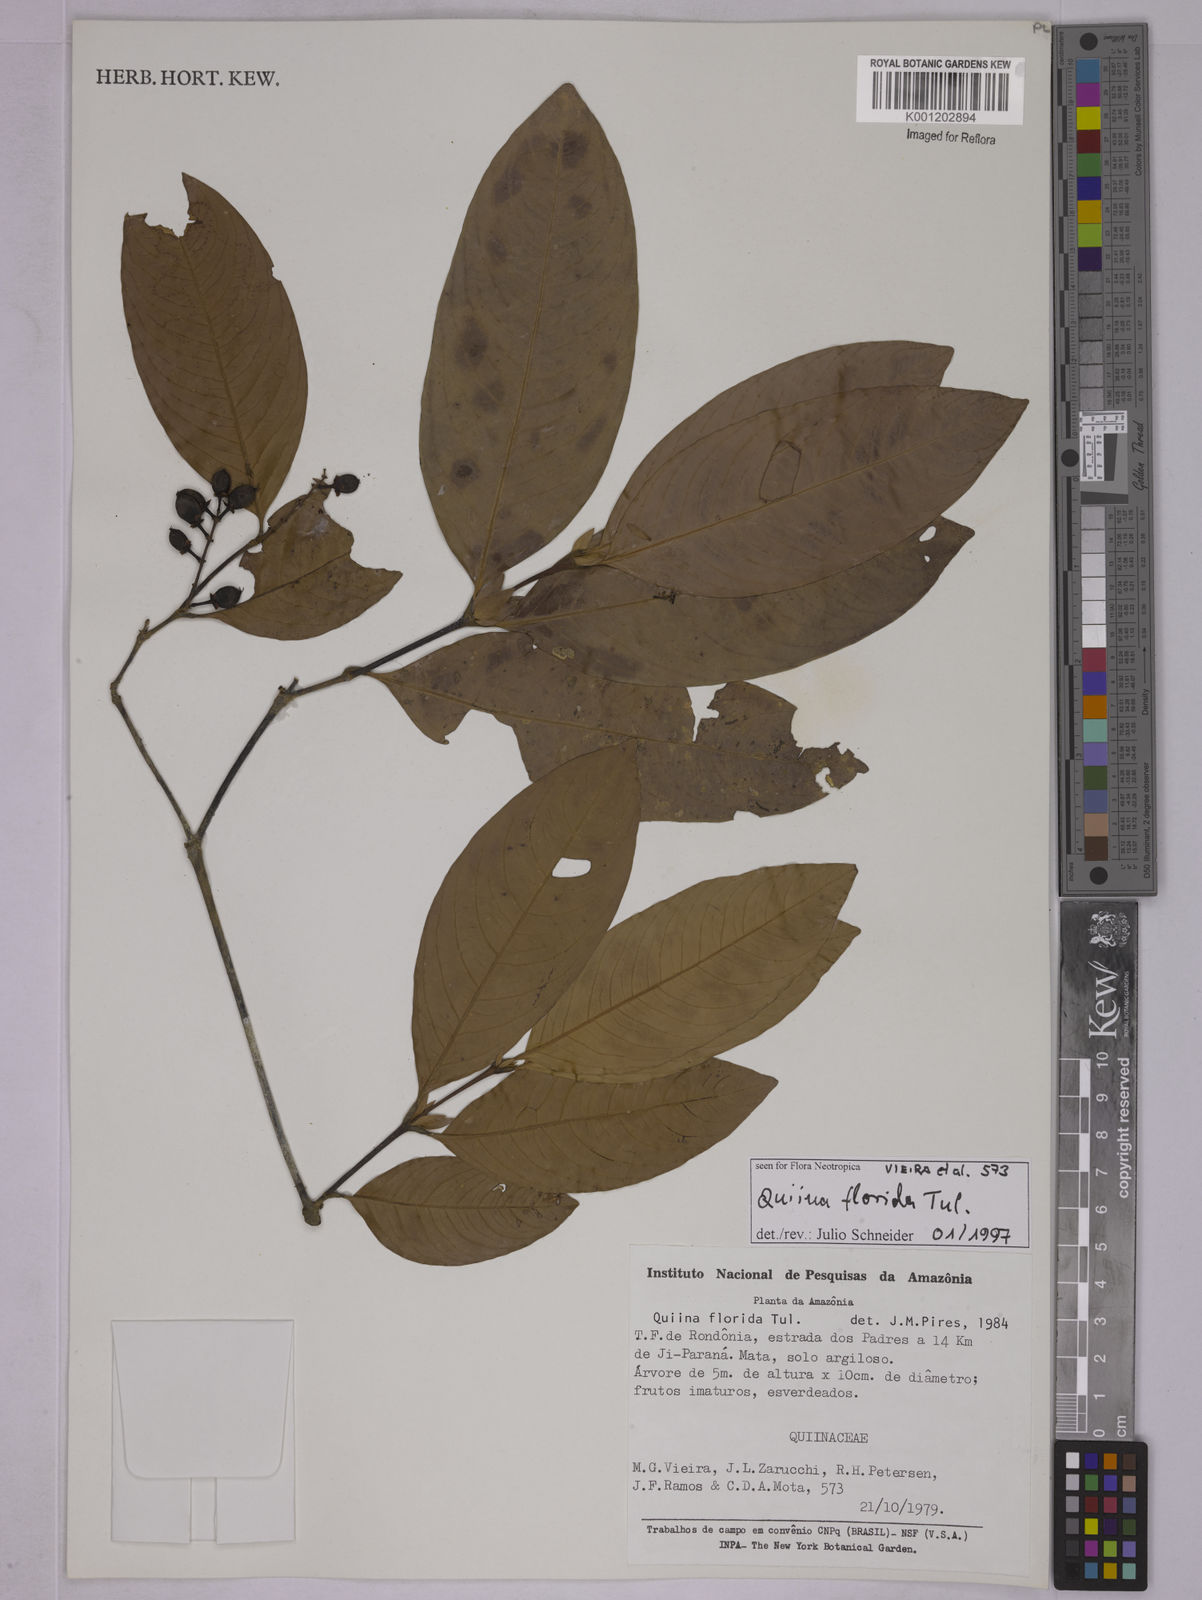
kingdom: Plantae
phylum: Tracheophyta
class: Magnoliopsida
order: Malpighiales
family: Quiinaceae
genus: Quiina
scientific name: Quiina florida
